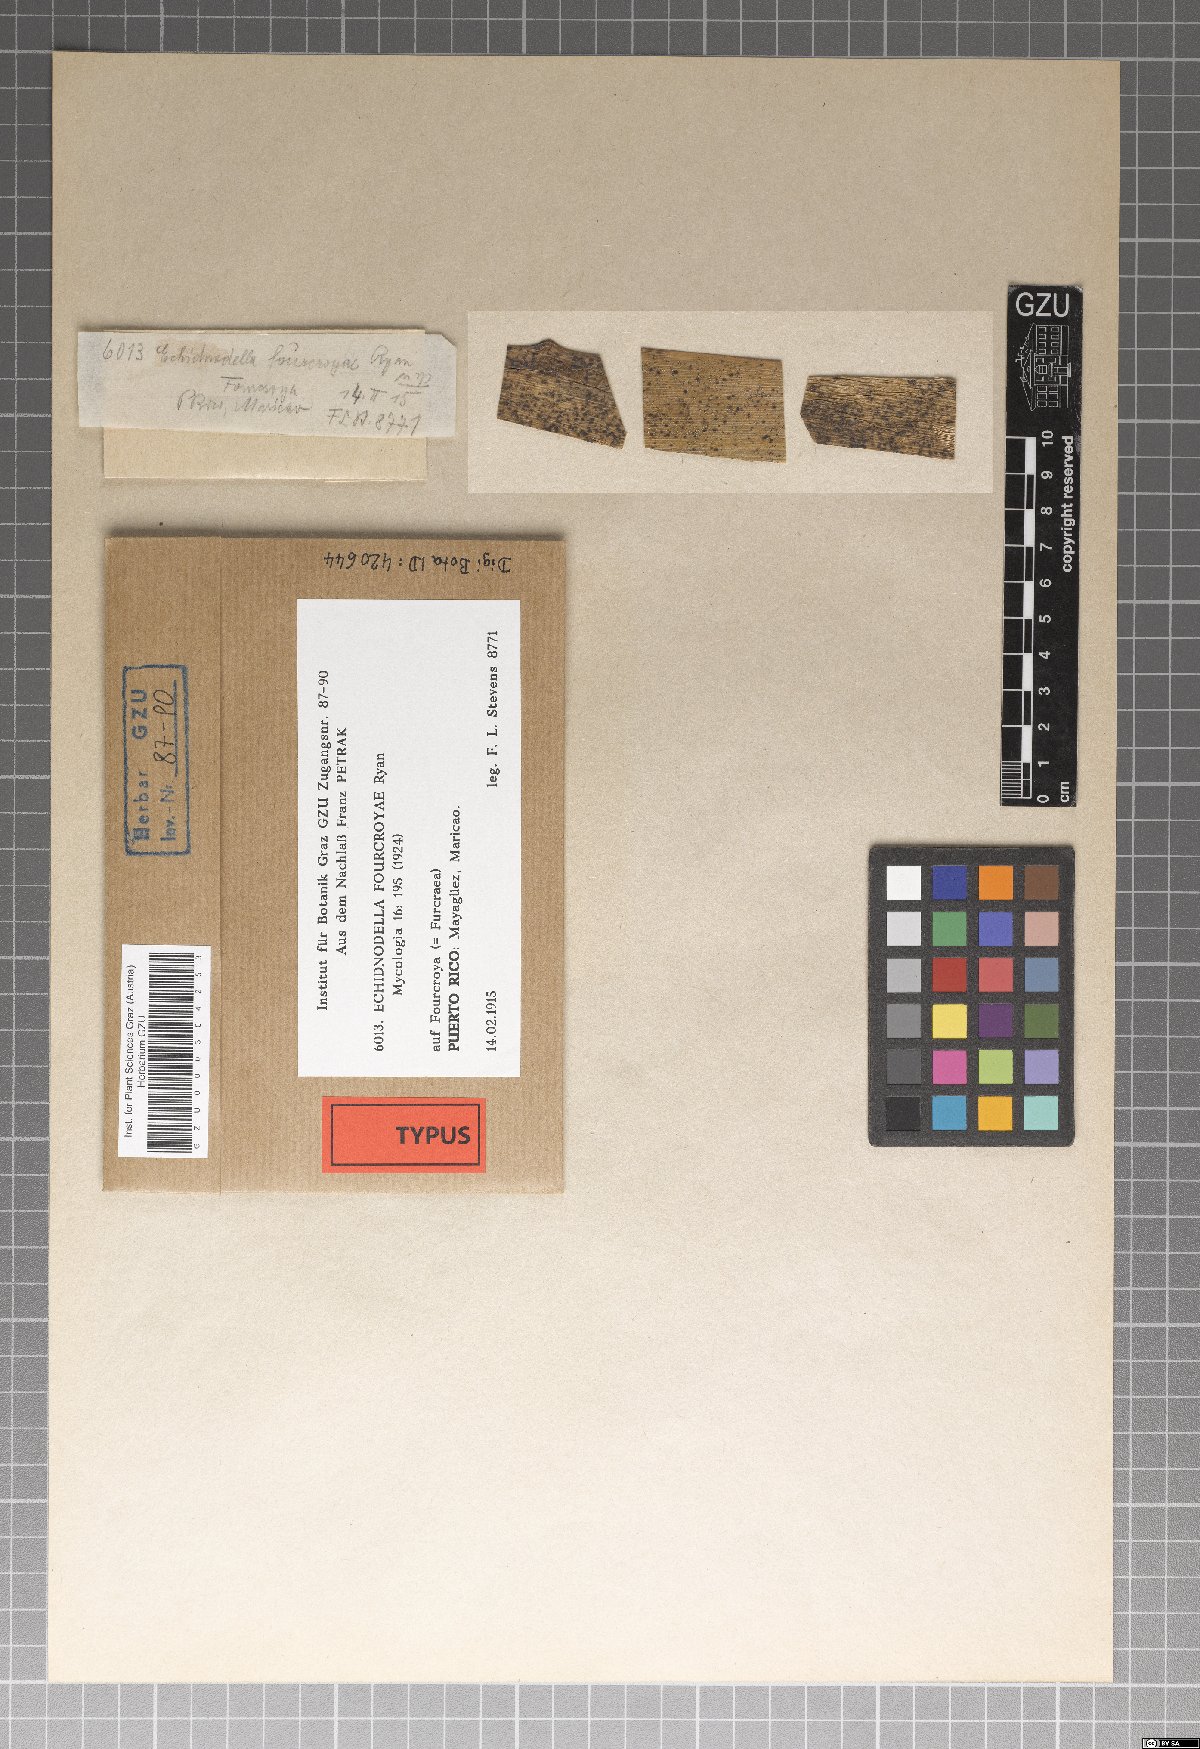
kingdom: Fungi
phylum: Ascomycota
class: Dothideomycetes
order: Asterinales
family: Asterinaceae
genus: Echidnodella
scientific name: Echidnodella
